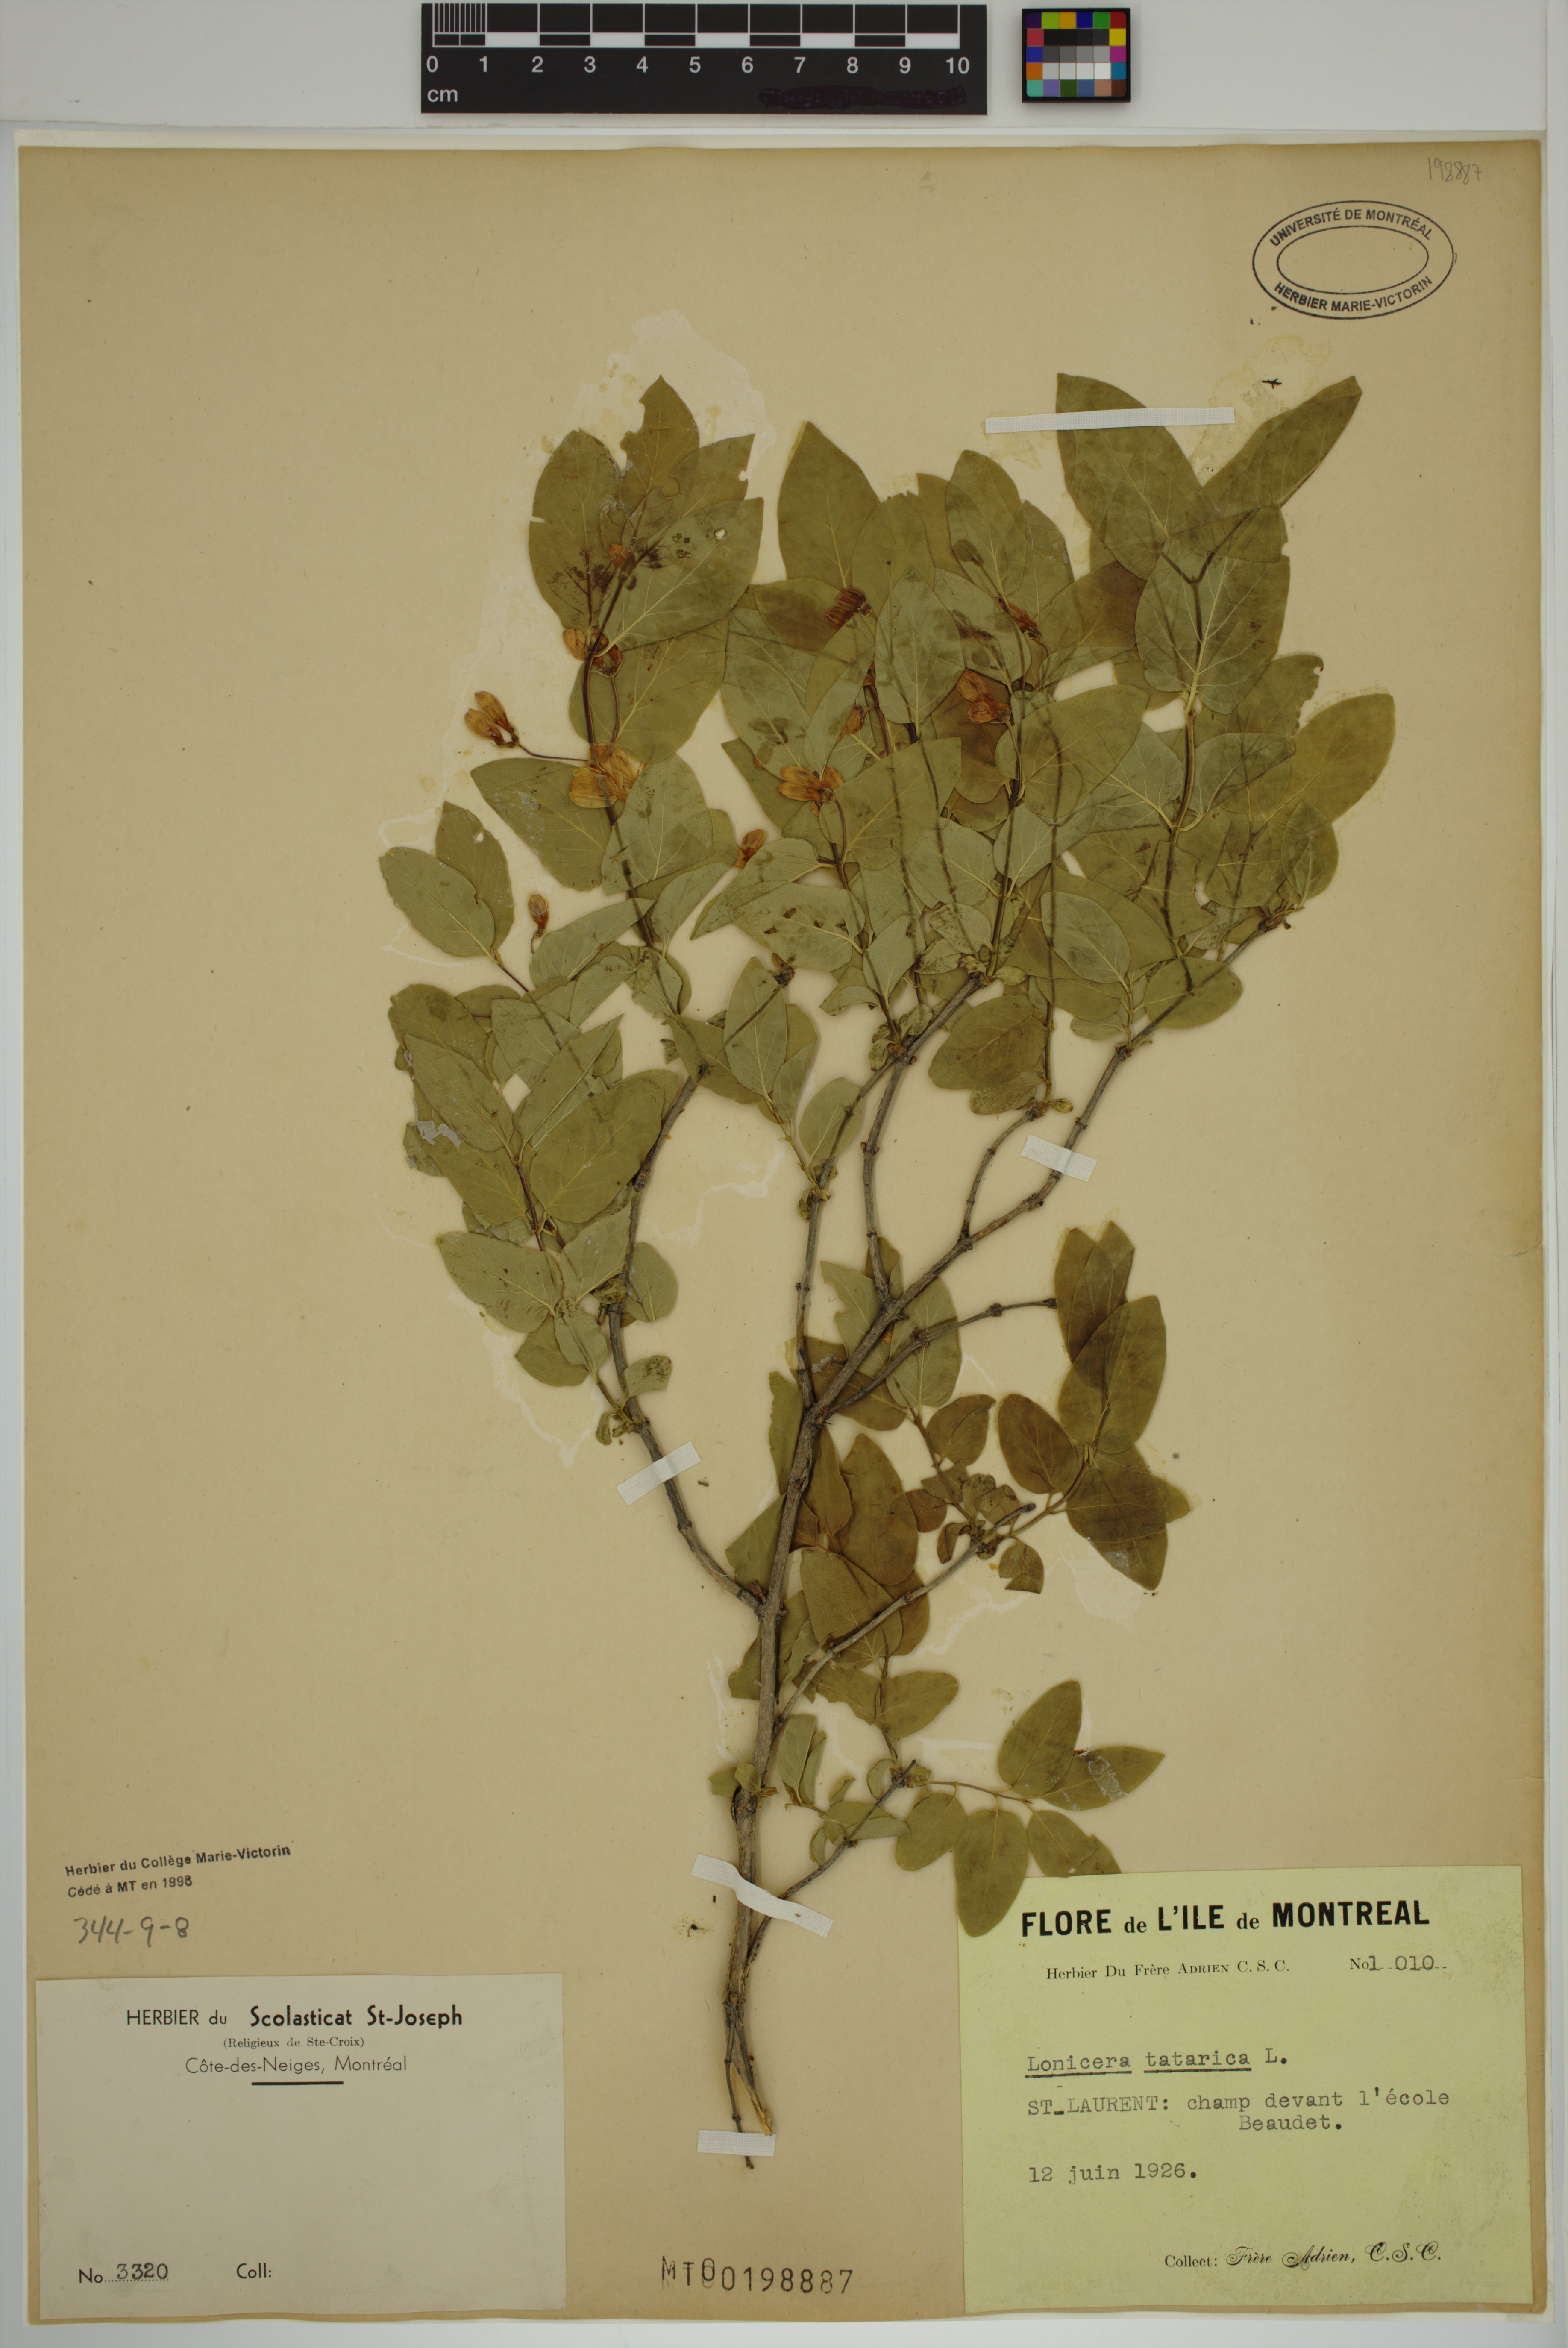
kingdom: Plantae
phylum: Tracheophyta
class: Magnoliopsida
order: Dipsacales
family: Caprifoliaceae
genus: Lonicera
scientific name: Lonicera tatarica
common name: Tatarian honeysuckle
